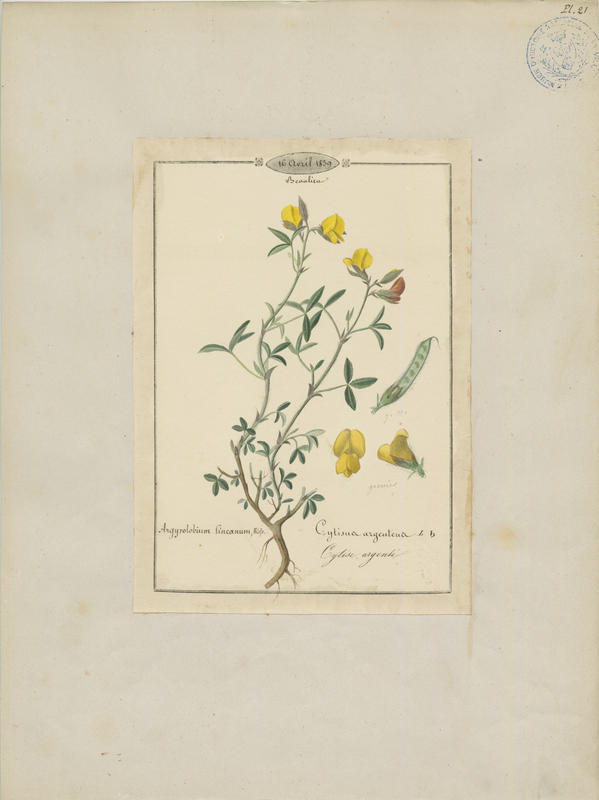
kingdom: Plantae
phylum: Tracheophyta
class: Magnoliopsida
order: Fabales
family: Fabaceae
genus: Argyrolobium
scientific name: Argyrolobium zanonii
